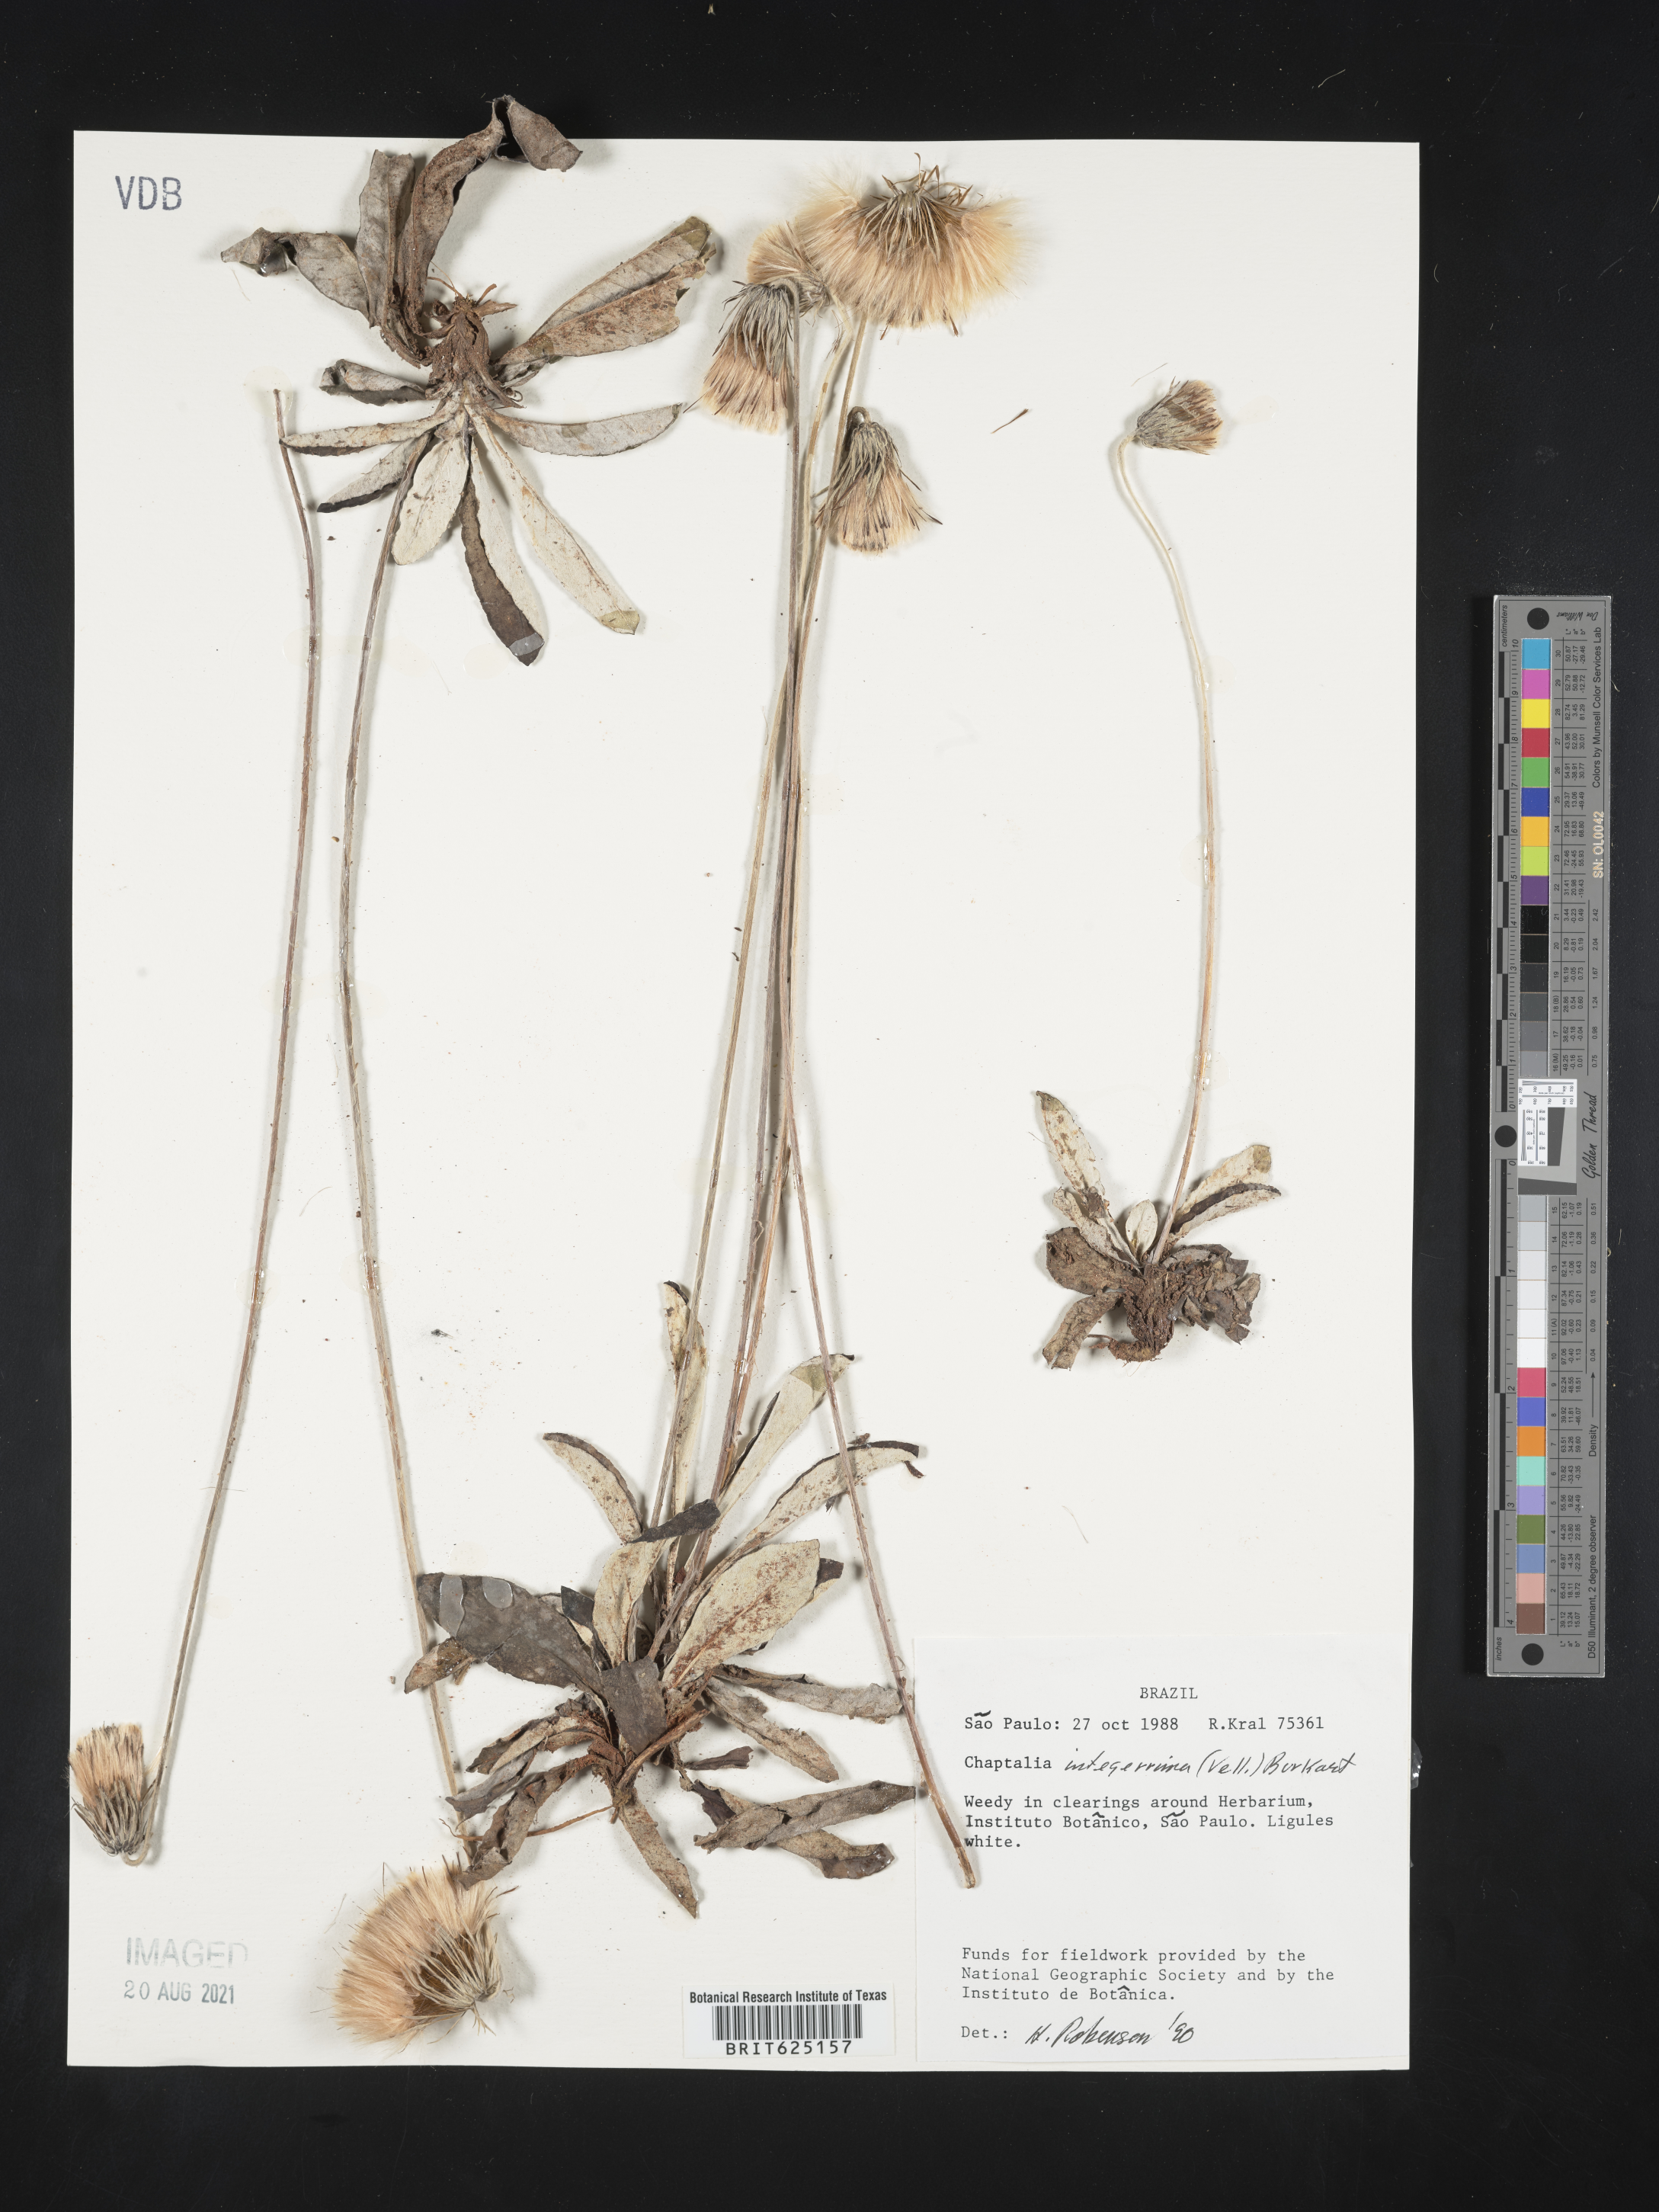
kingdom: Plantae
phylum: Tracheophyta
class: Magnoliopsida
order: Asterales
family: Asteraceae
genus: Chaptalia
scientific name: Chaptalia integerrima
